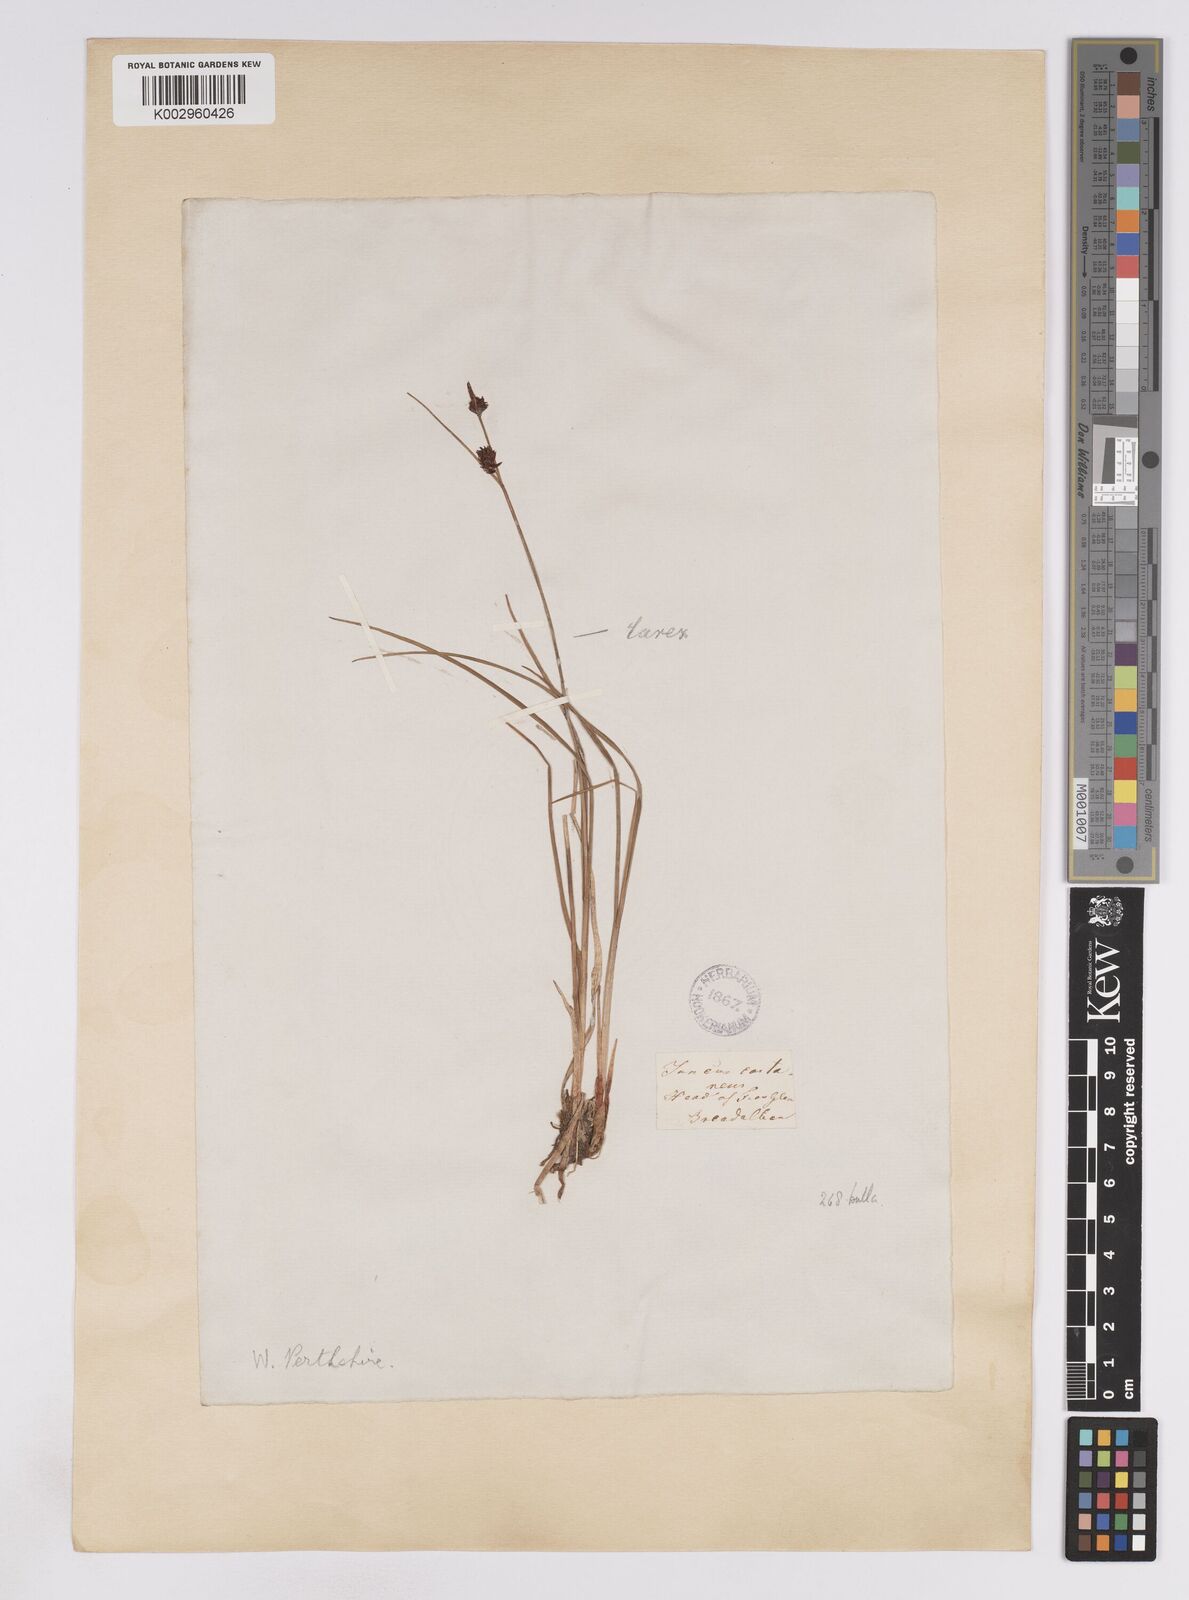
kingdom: Plantae
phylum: Tracheophyta
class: Liliopsida
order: Poales
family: Cyperaceae
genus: Carex
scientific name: Carex saxatilis
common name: Russet sedge
